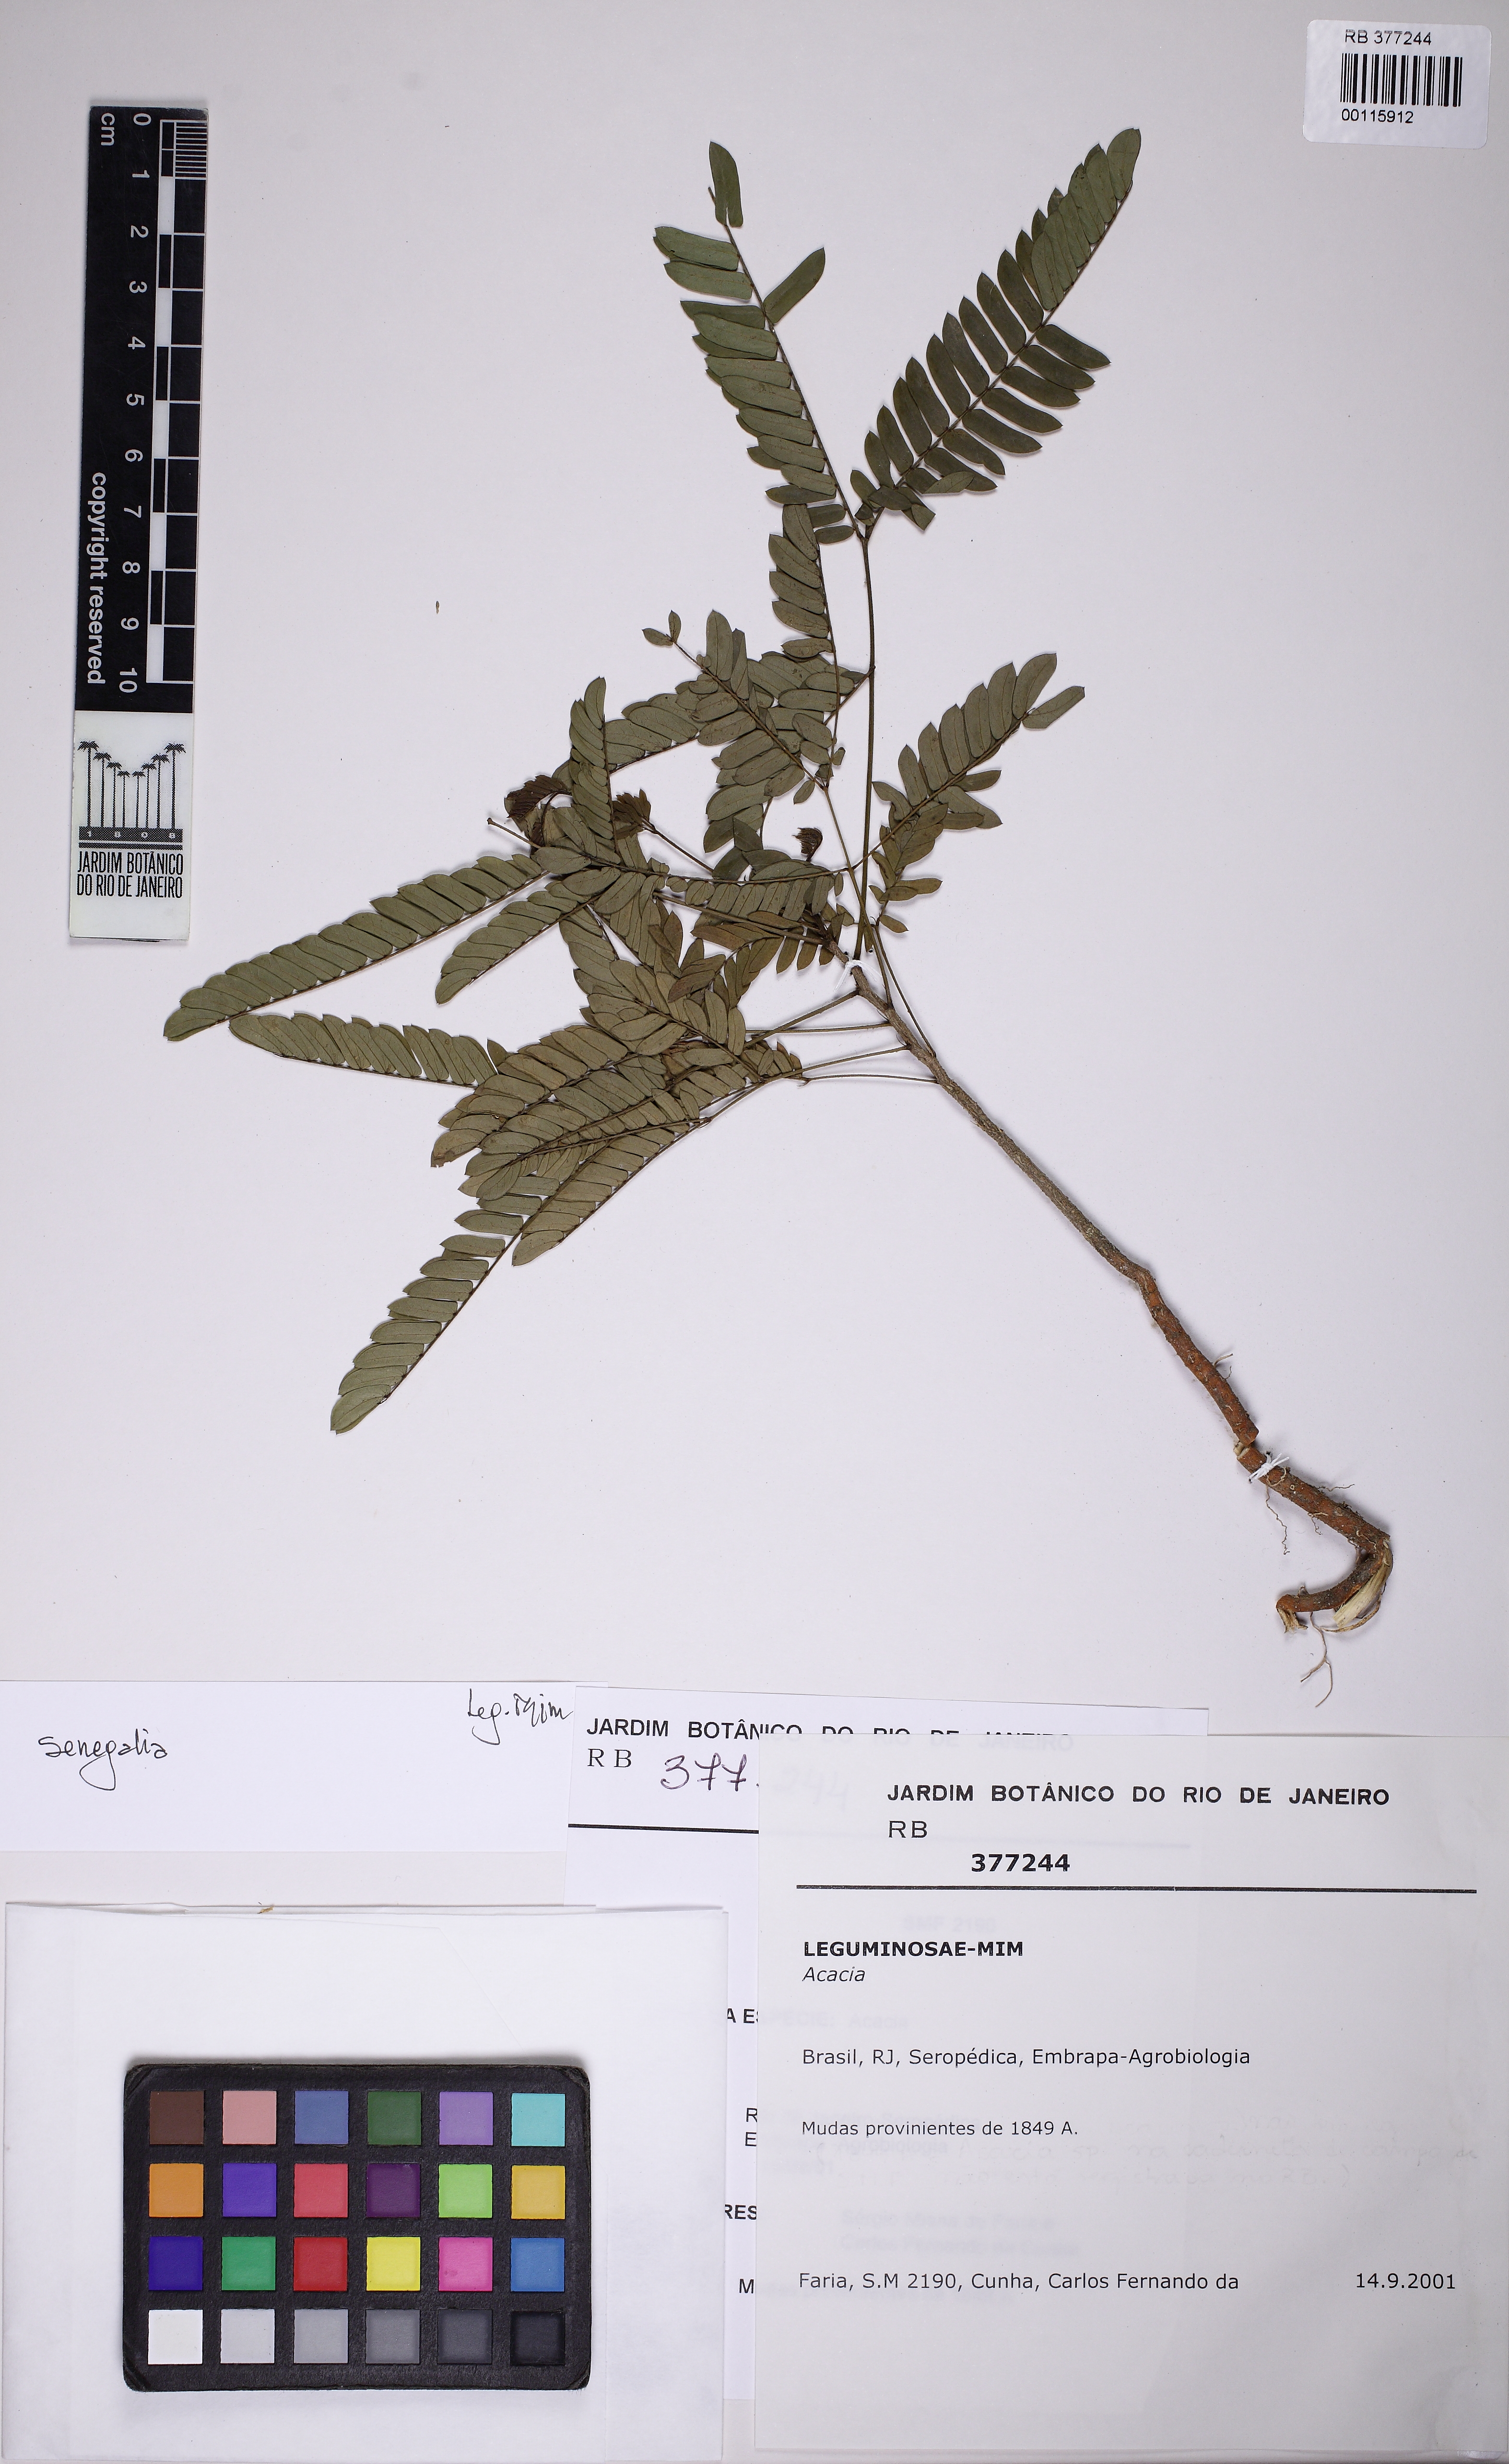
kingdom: Plantae
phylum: Tracheophyta
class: Magnoliopsida
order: Fabales
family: Fabaceae
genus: Senegalia
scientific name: Senegalia
